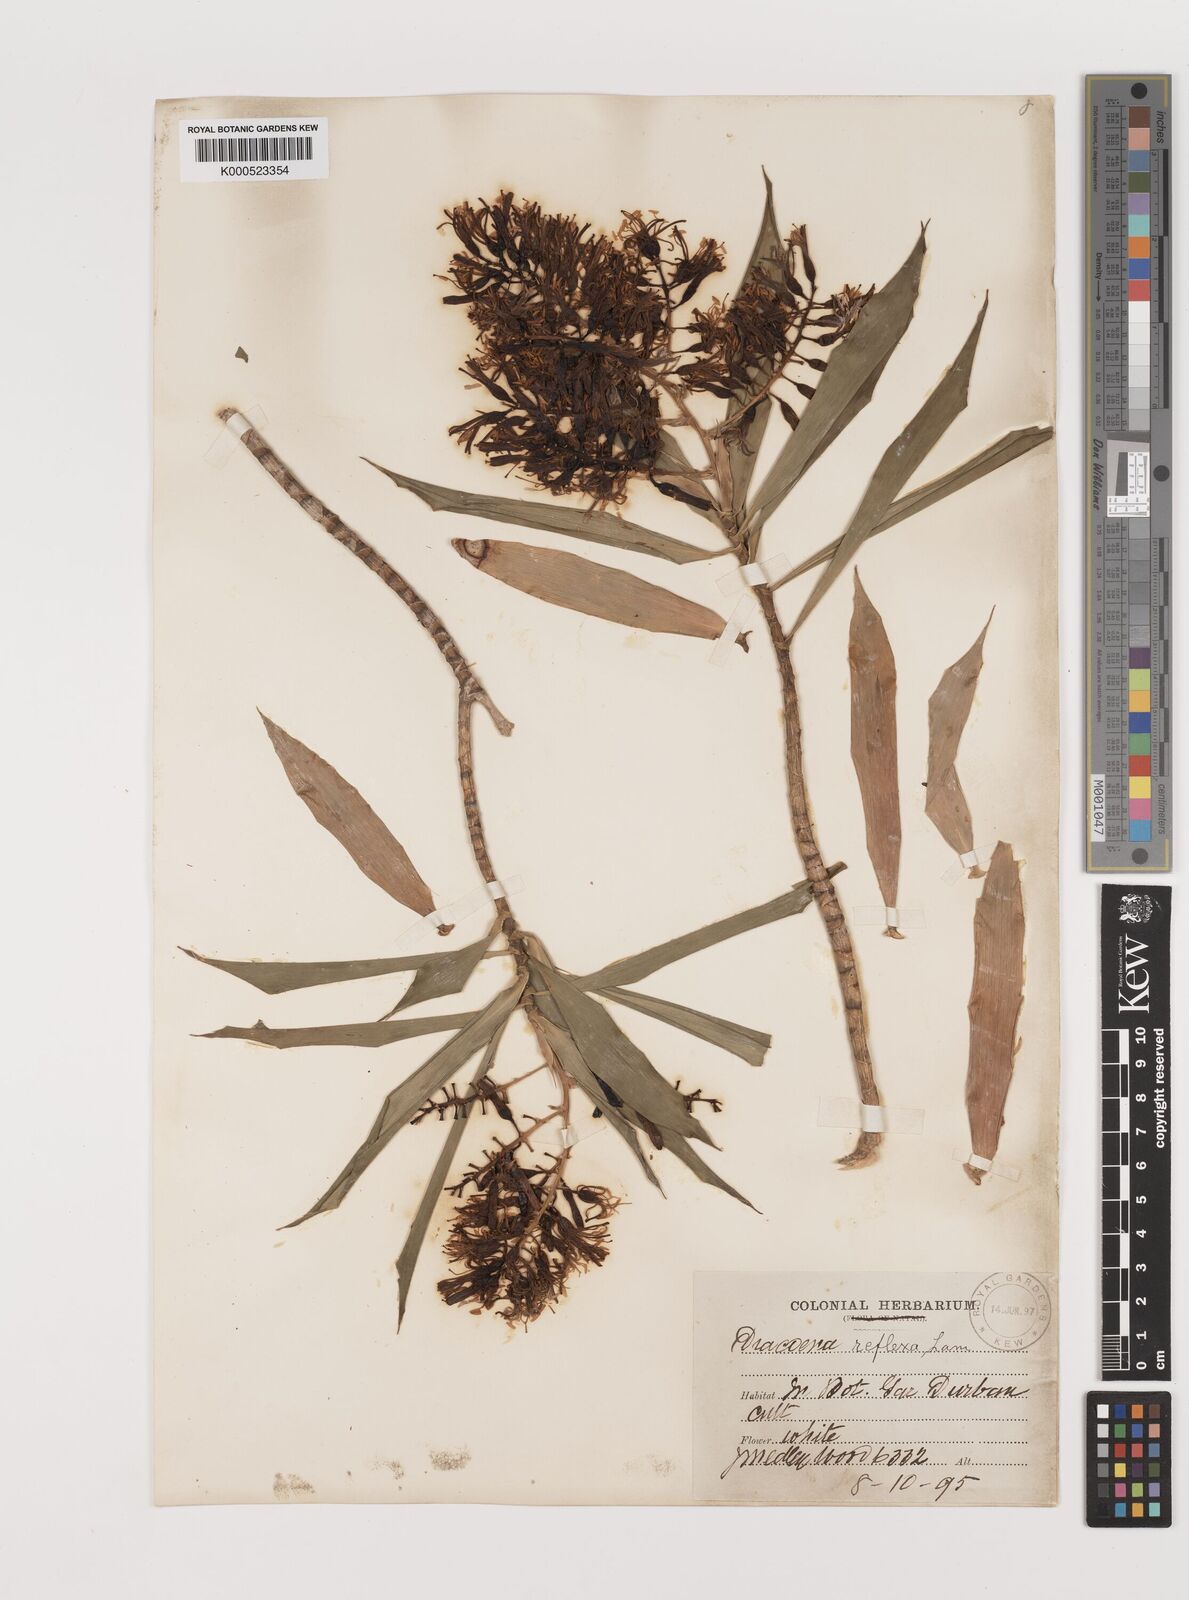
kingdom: Plantae
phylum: Tracheophyta
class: Liliopsida
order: Asparagales
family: Asparagaceae
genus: Dracaena
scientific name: Dracaena reflexa
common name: Song-of-india
